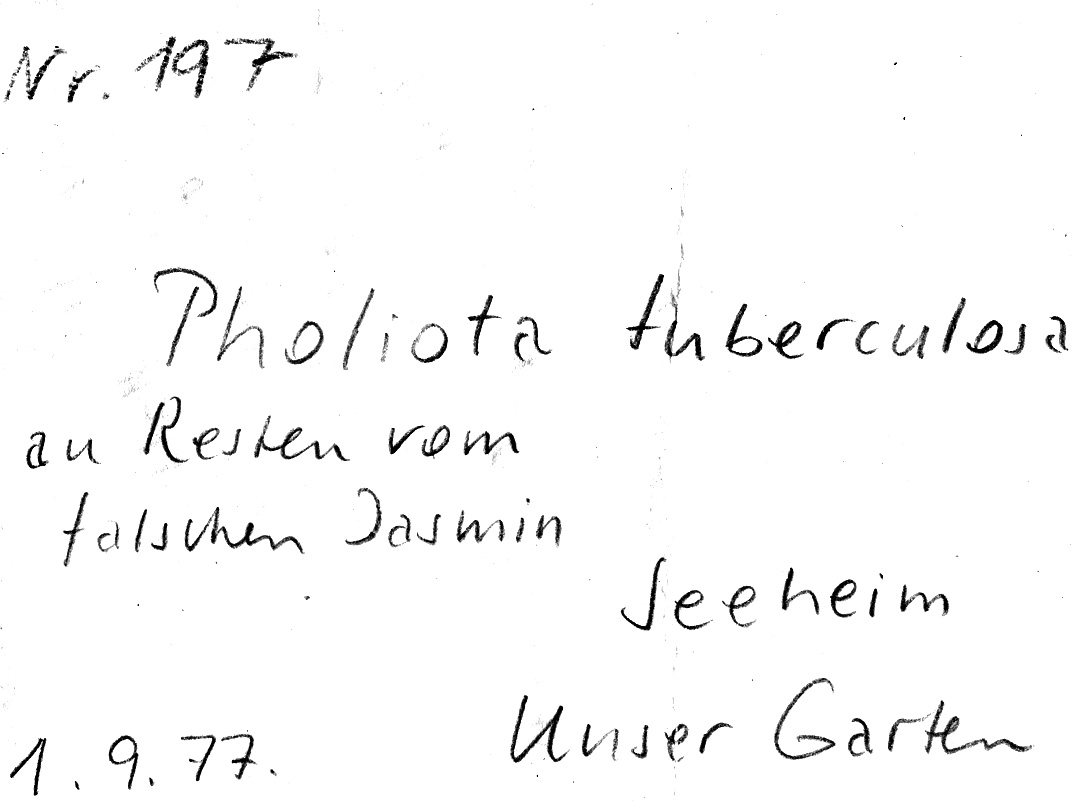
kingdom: Fungi
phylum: Basidiomycota
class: Agaricomycetes
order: Agaricales
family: Strophariaceae
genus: Pholiota
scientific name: Pholiota tuberculosa
